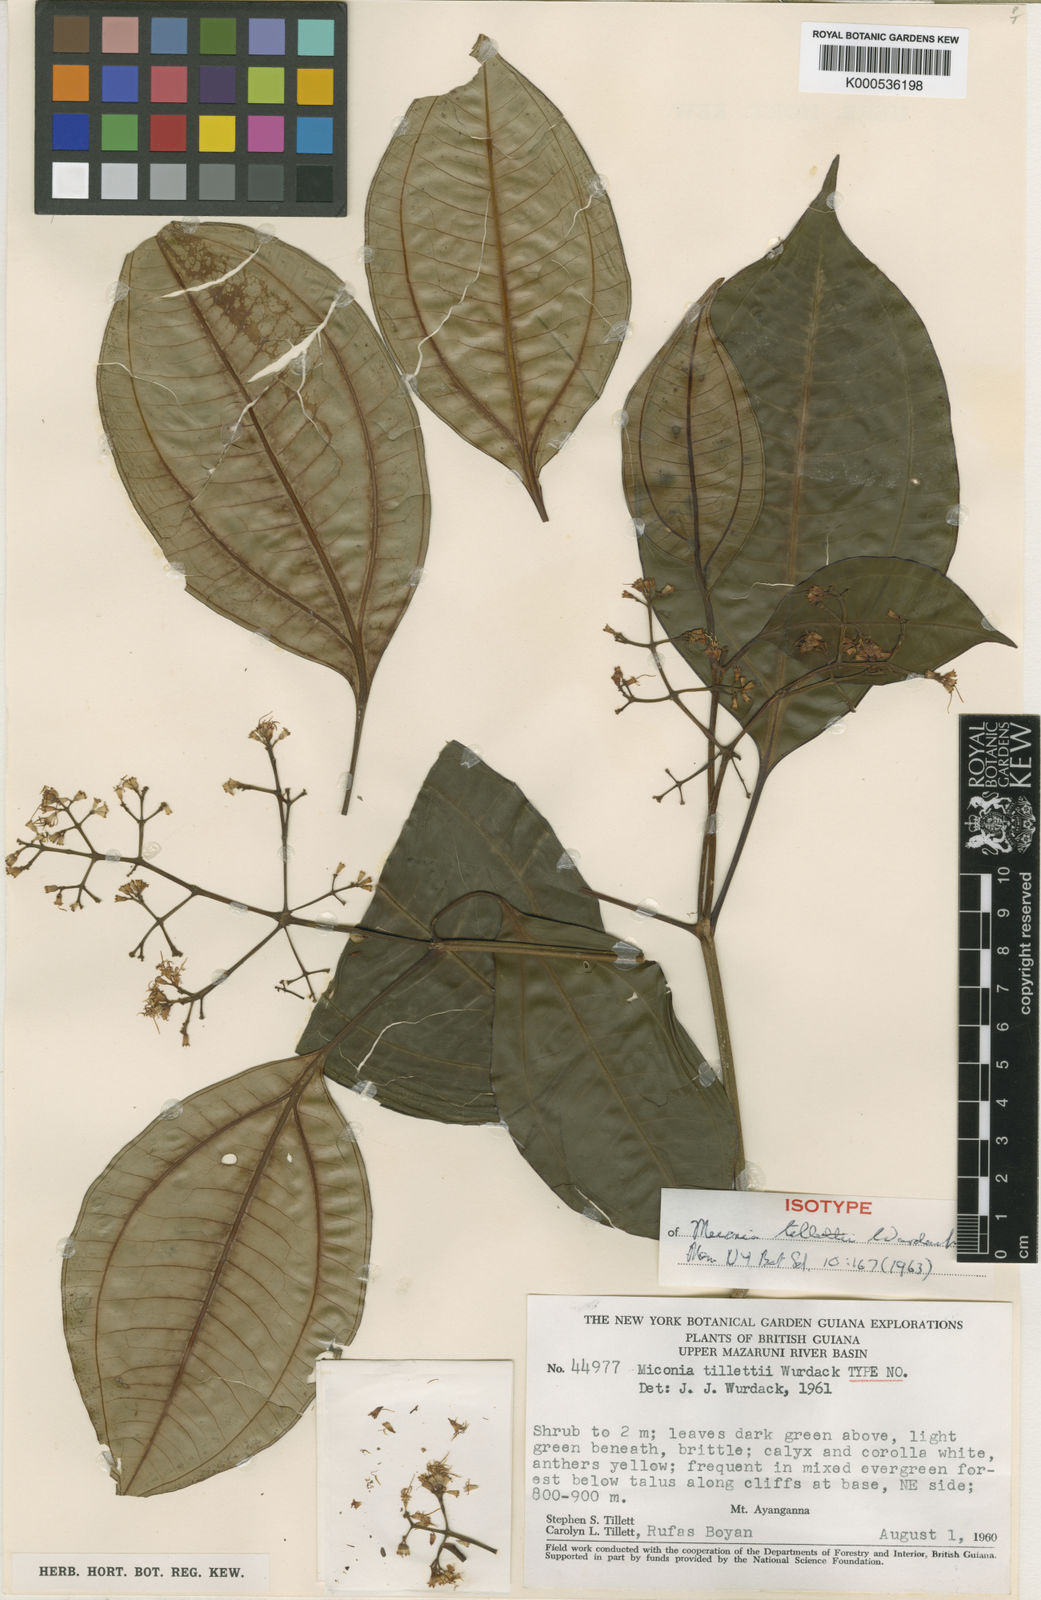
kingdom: Plantae
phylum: Tracheophyta
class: Magnoliopsida
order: Myrtales
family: Melastomataceae
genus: Miconia
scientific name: Miconia tillettii
